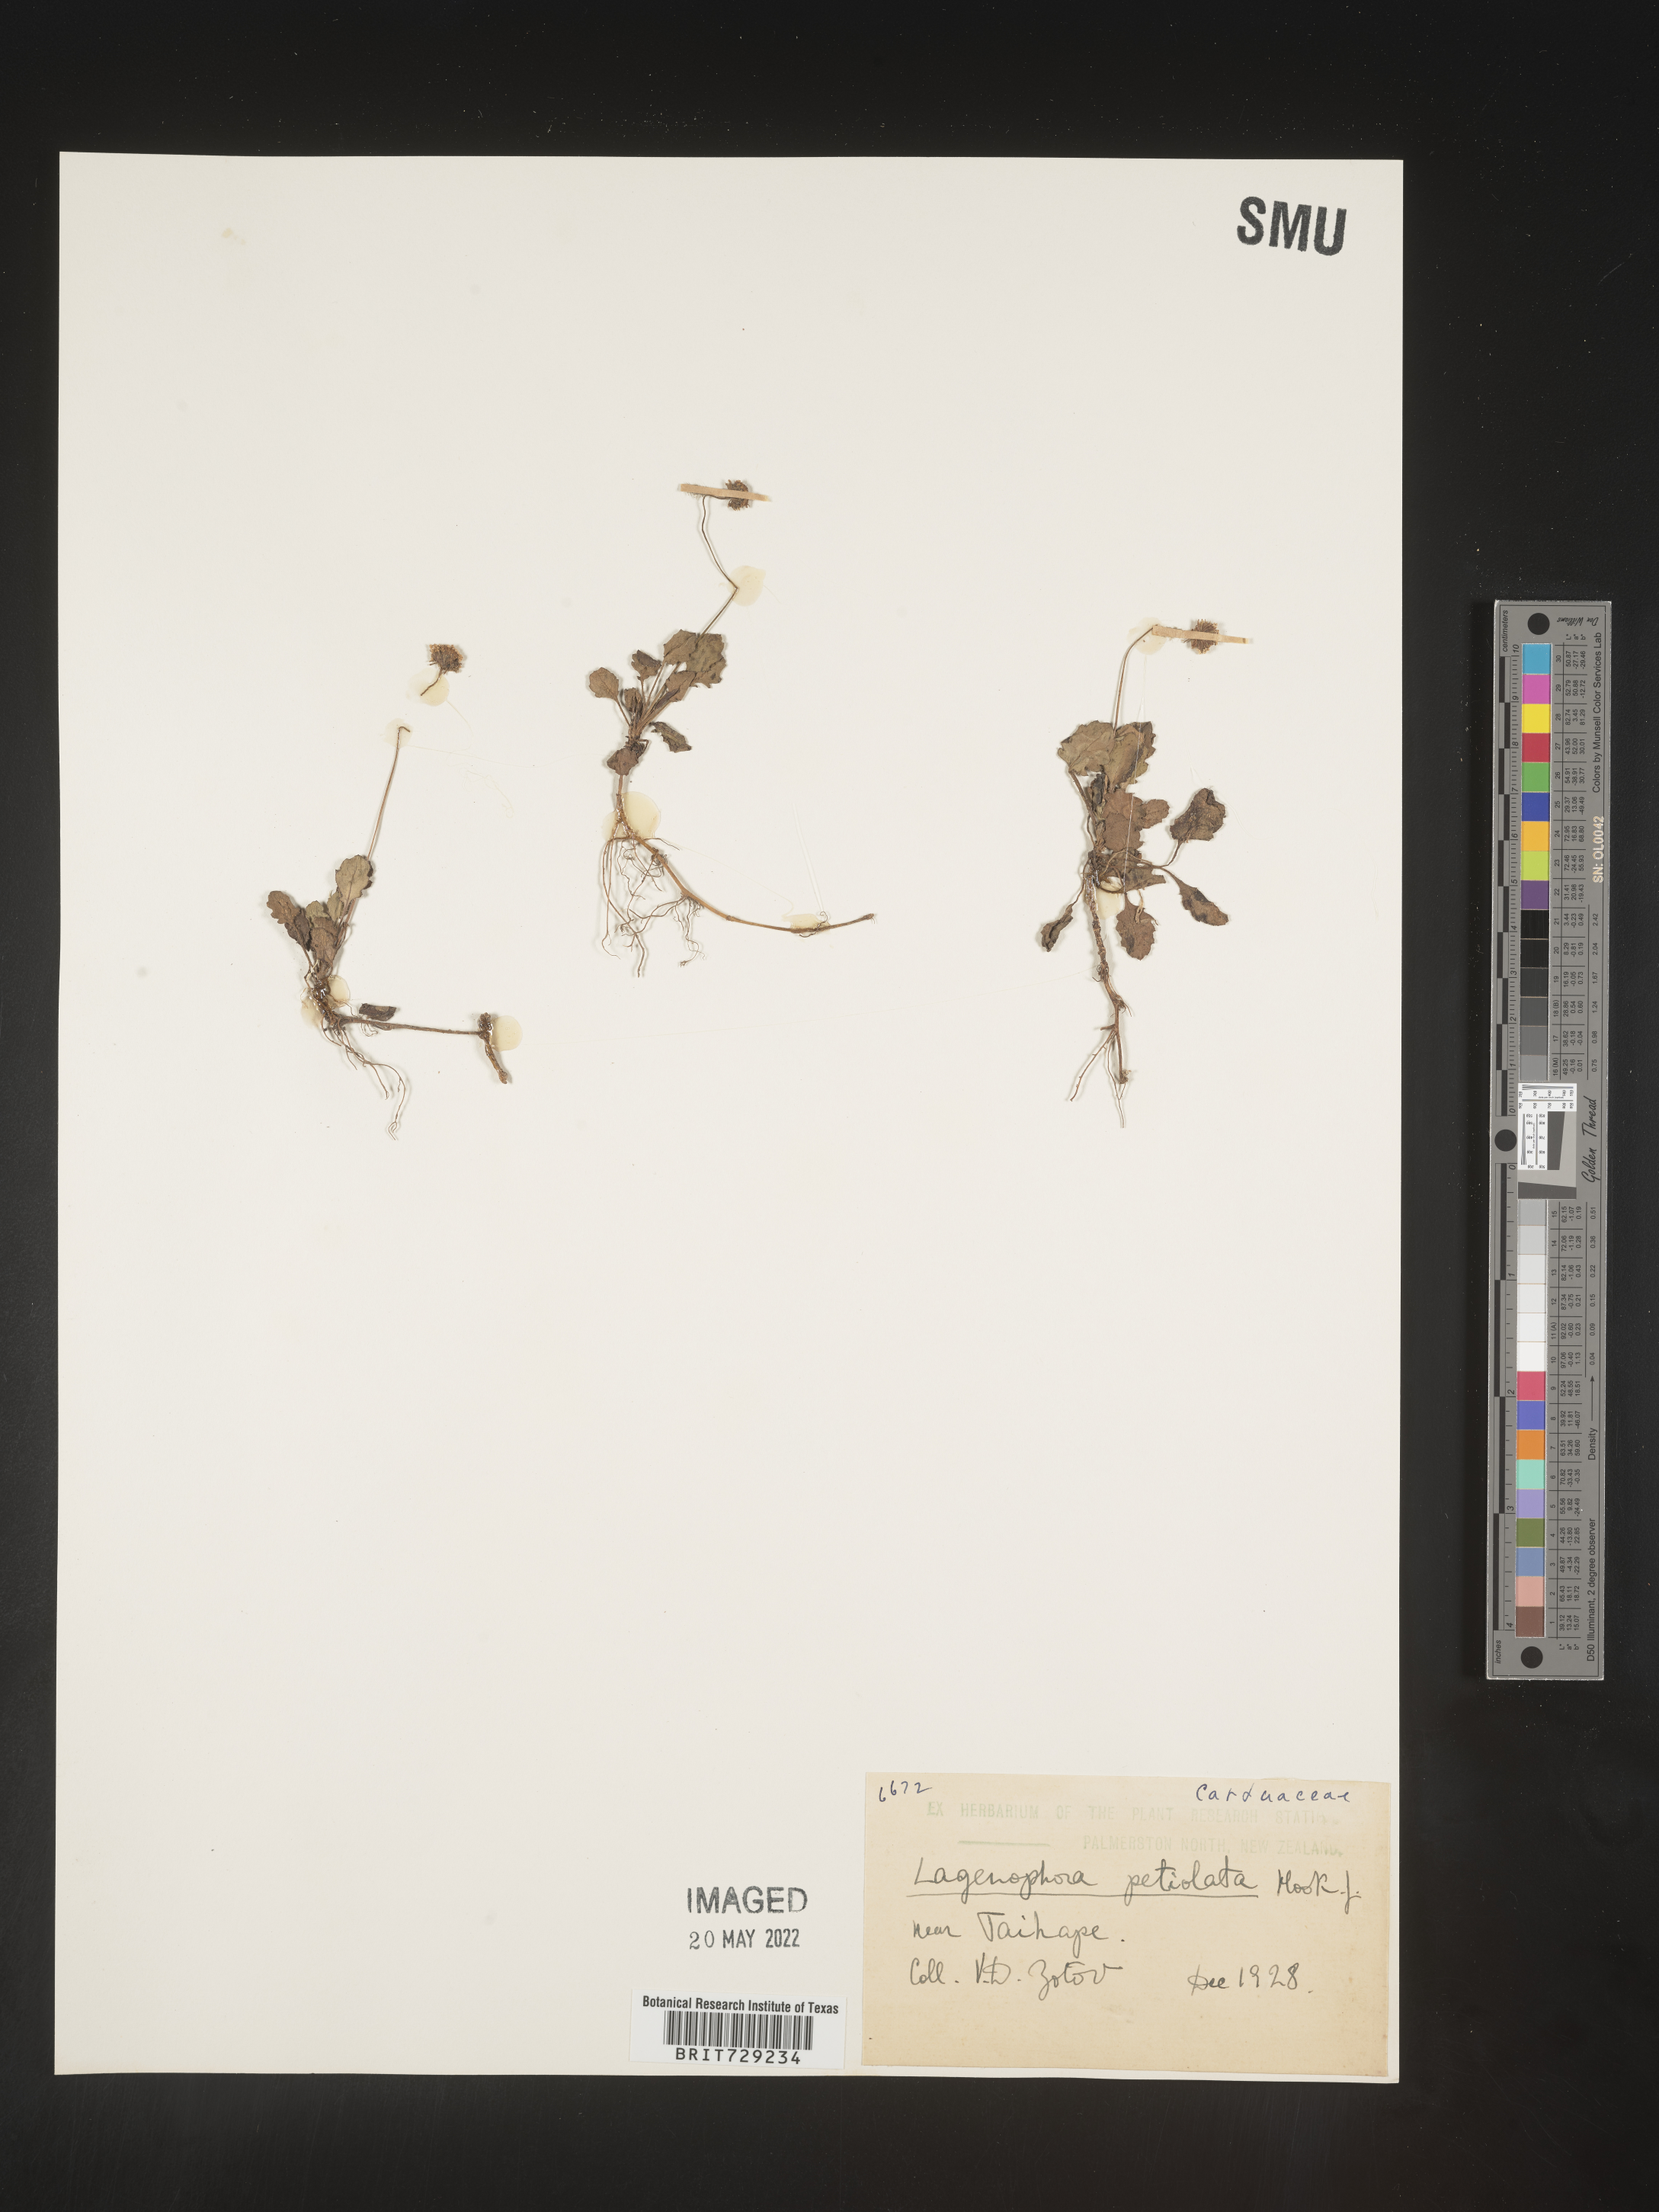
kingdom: Plantae
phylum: Tracheophyta
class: Magnoliopsida
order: Asterales
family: Asteraceae
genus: Lagenophora
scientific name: Lagenophora
